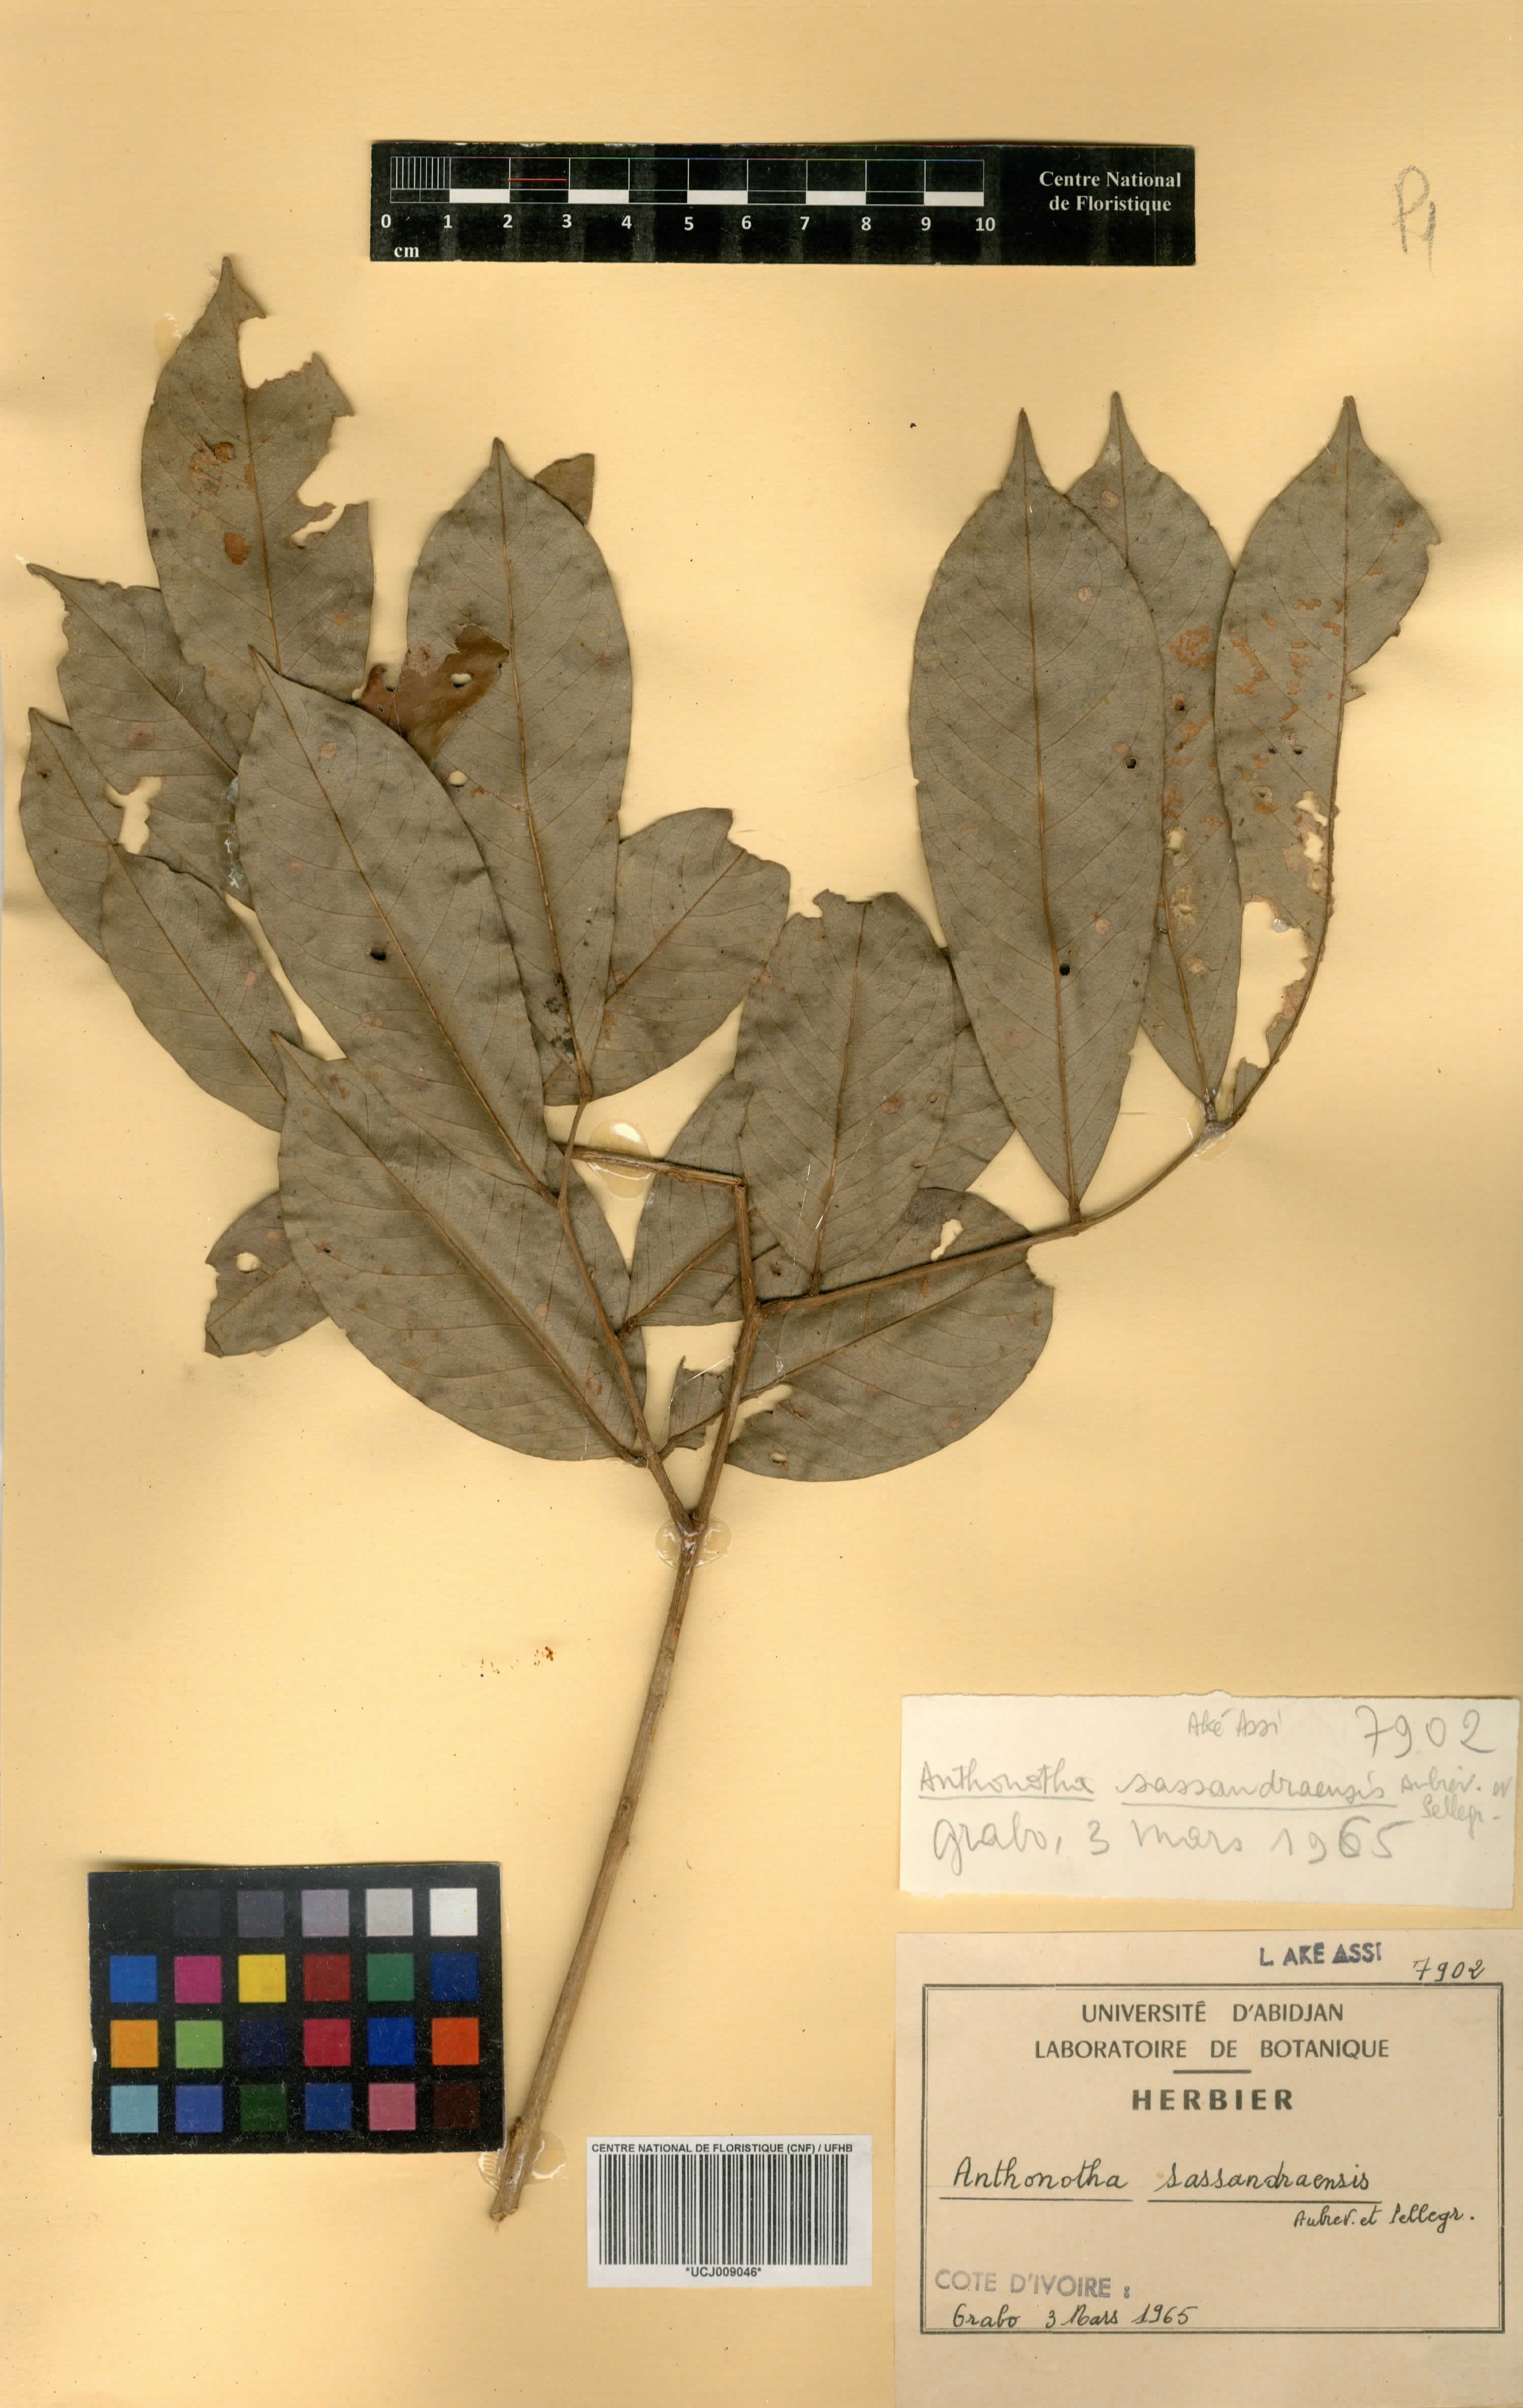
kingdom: Plantae
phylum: Tracheophyta
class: Magnoliopsida
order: Fabales
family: Fabaceae
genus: Anthonotha
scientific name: Anthonotha crassifolia
